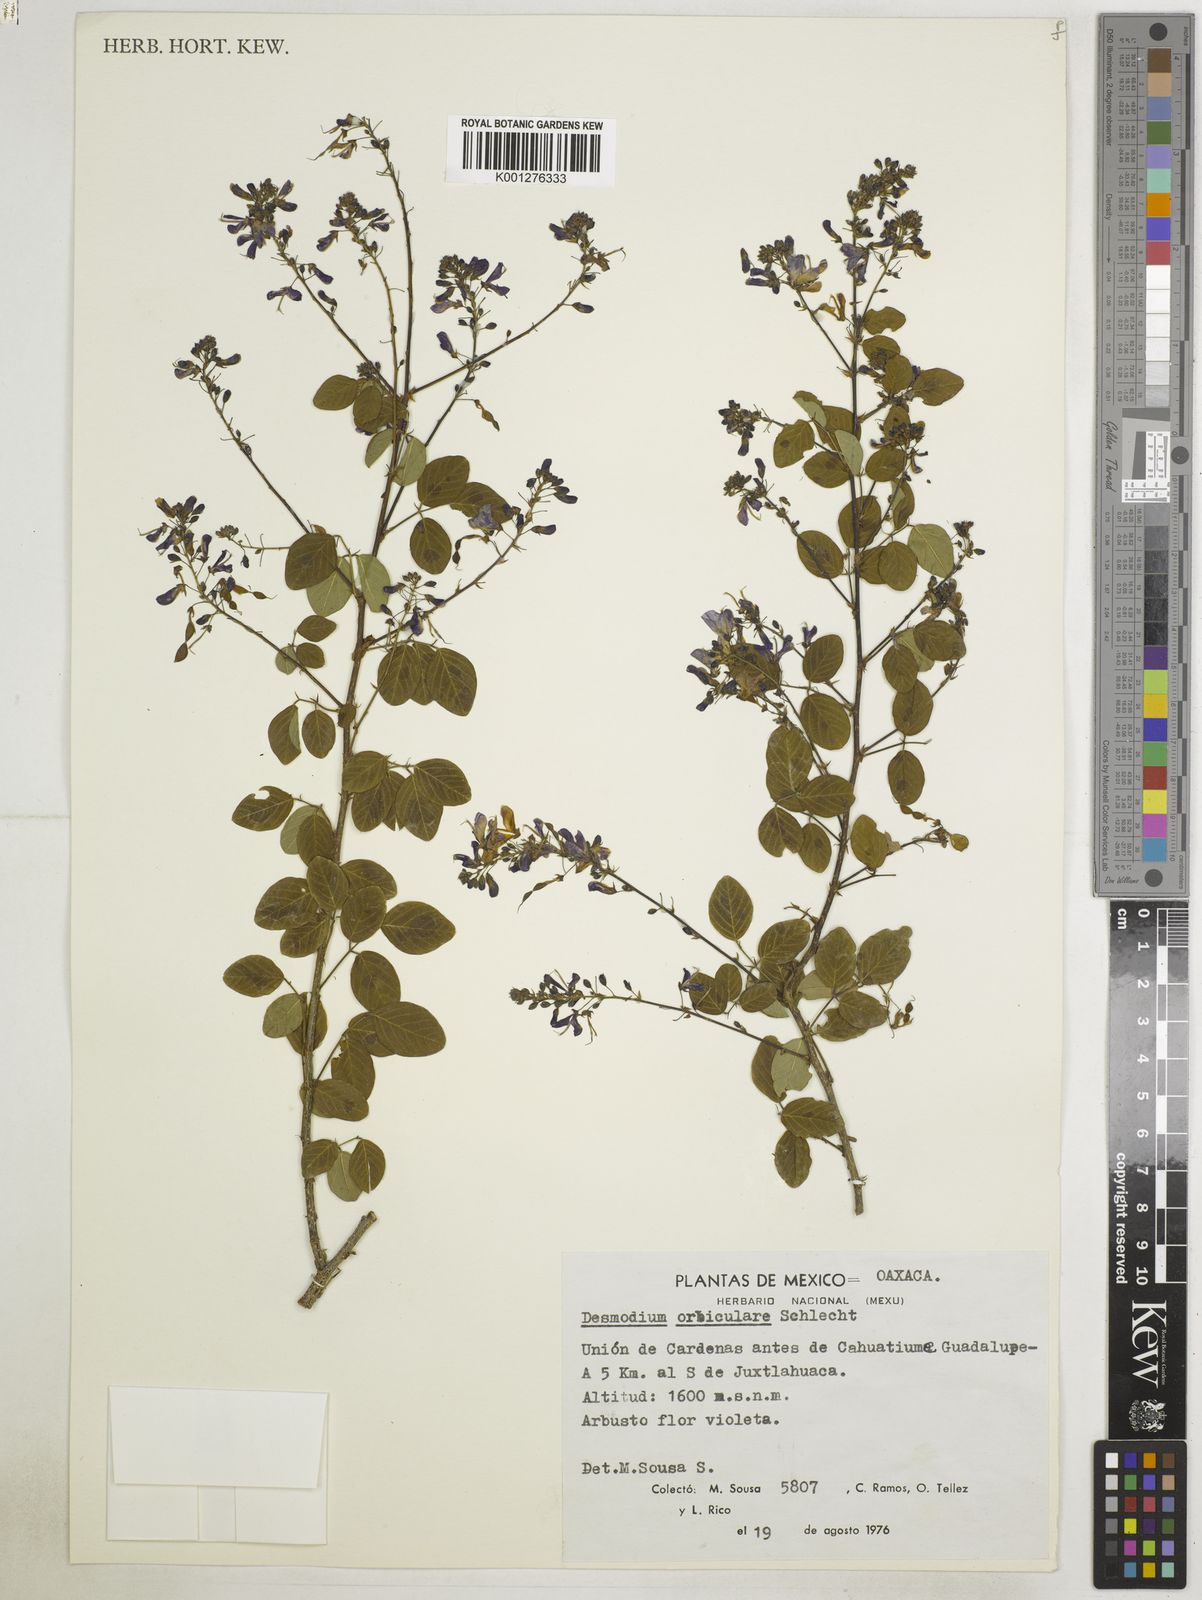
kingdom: Plantae
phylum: Tracheophyta
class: Magnoliopsida
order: Fabales
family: Fabaceae
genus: Desmodium
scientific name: Desmodium orbiculare
